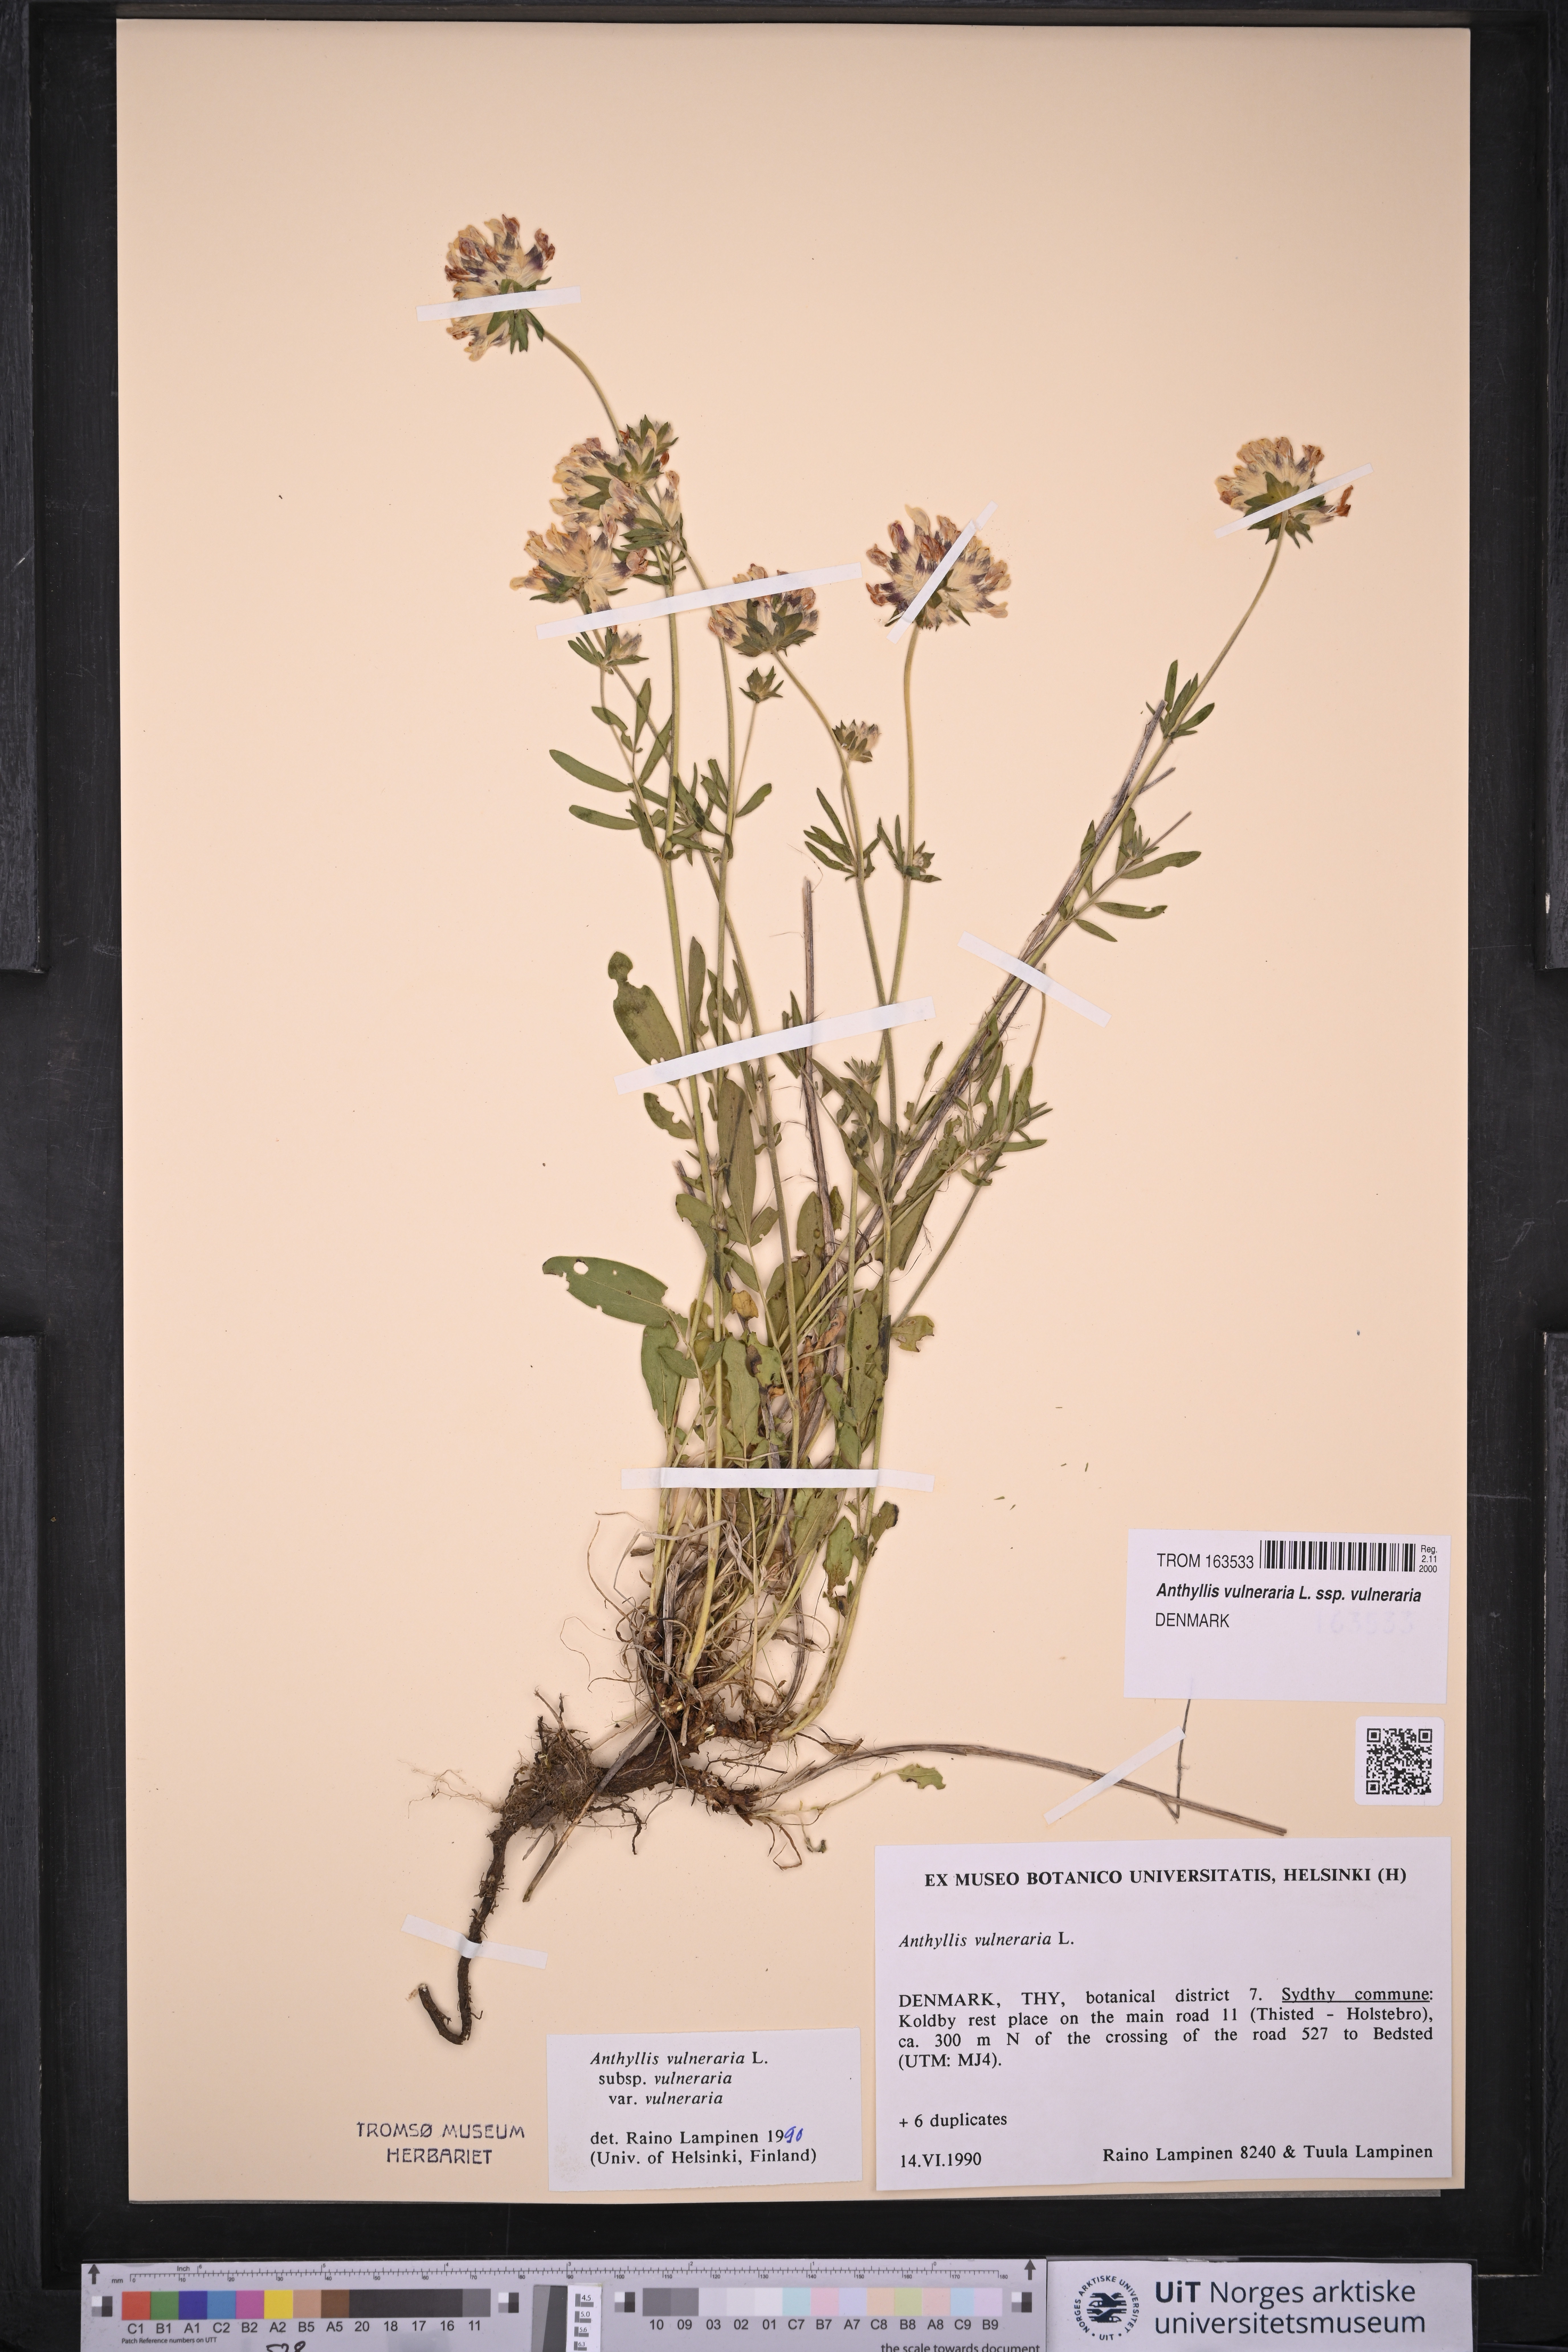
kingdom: Plantae
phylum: Tracheophyta
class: Magnoliopsida
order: Fabales
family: Fabaceae
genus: Anthyllis
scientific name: Anthyllis vulneraria
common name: Kidney vetch
